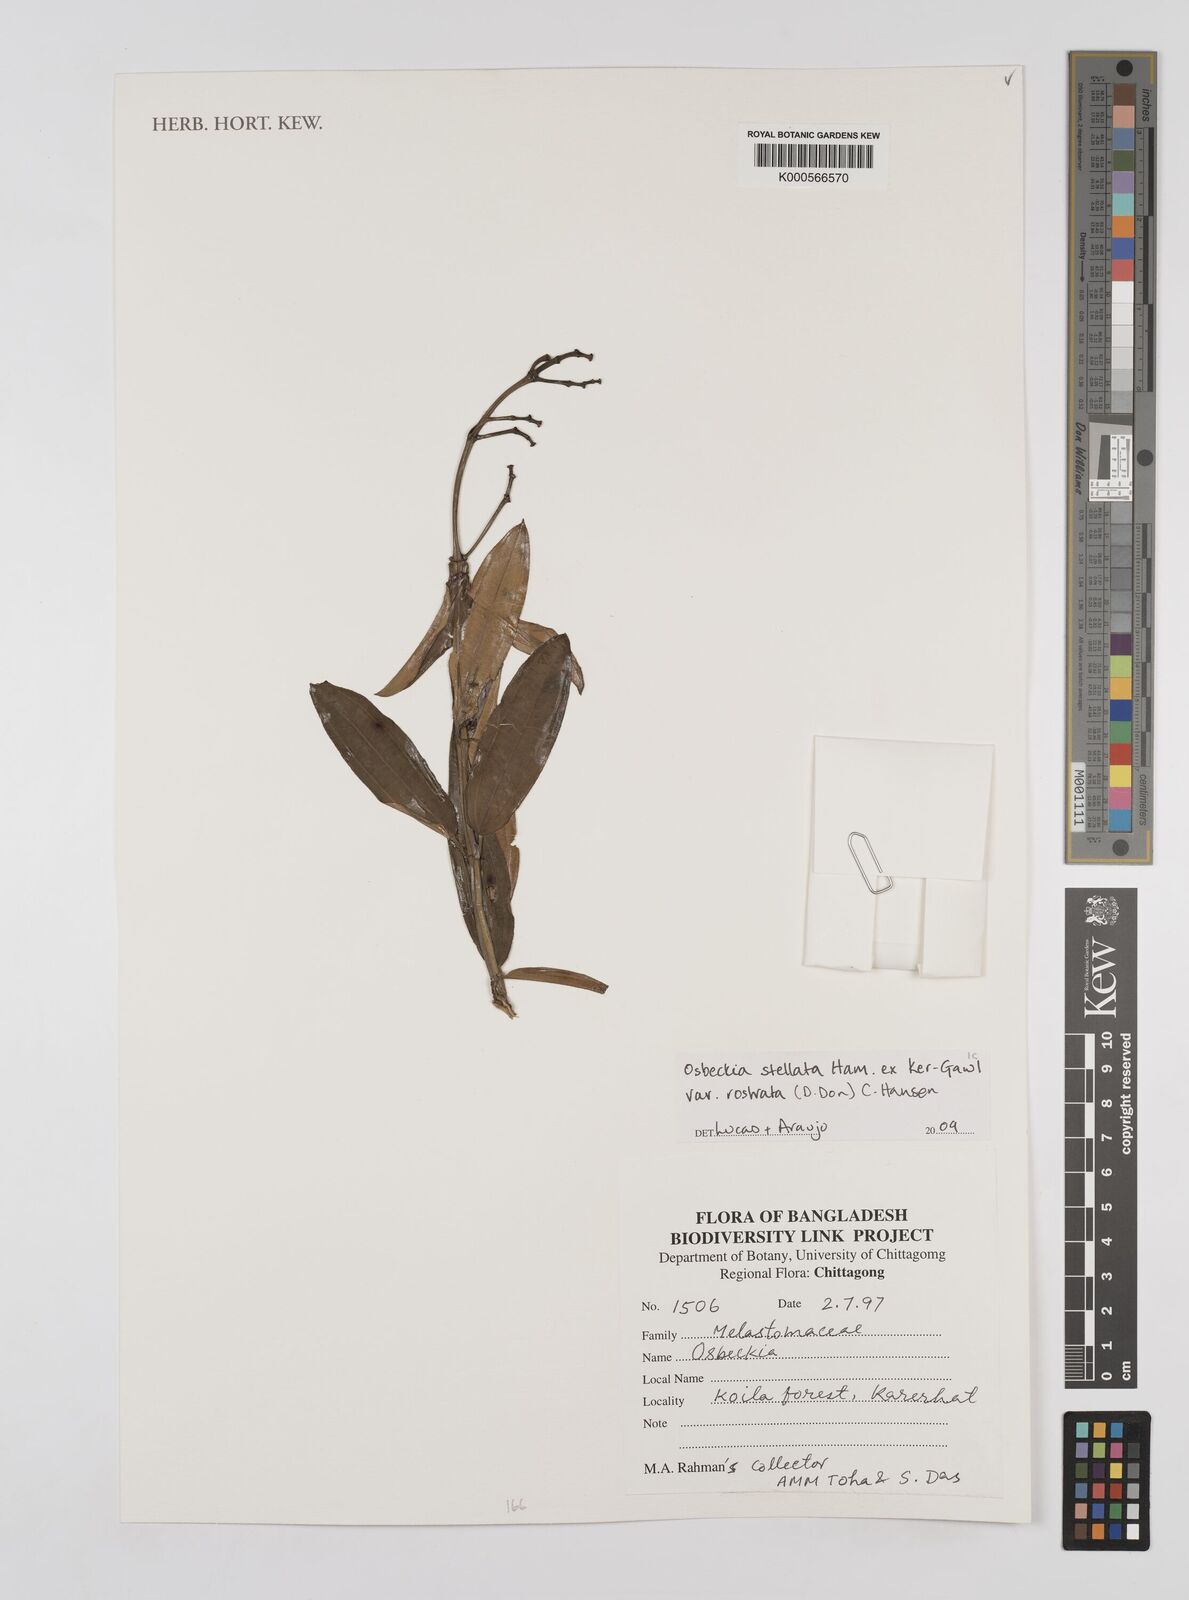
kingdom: Plantae
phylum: Tracheophyta
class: Magnoliopsida
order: Myrtales
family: Melastomataceae
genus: Osbeckia
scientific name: Osbeckia rostrata
